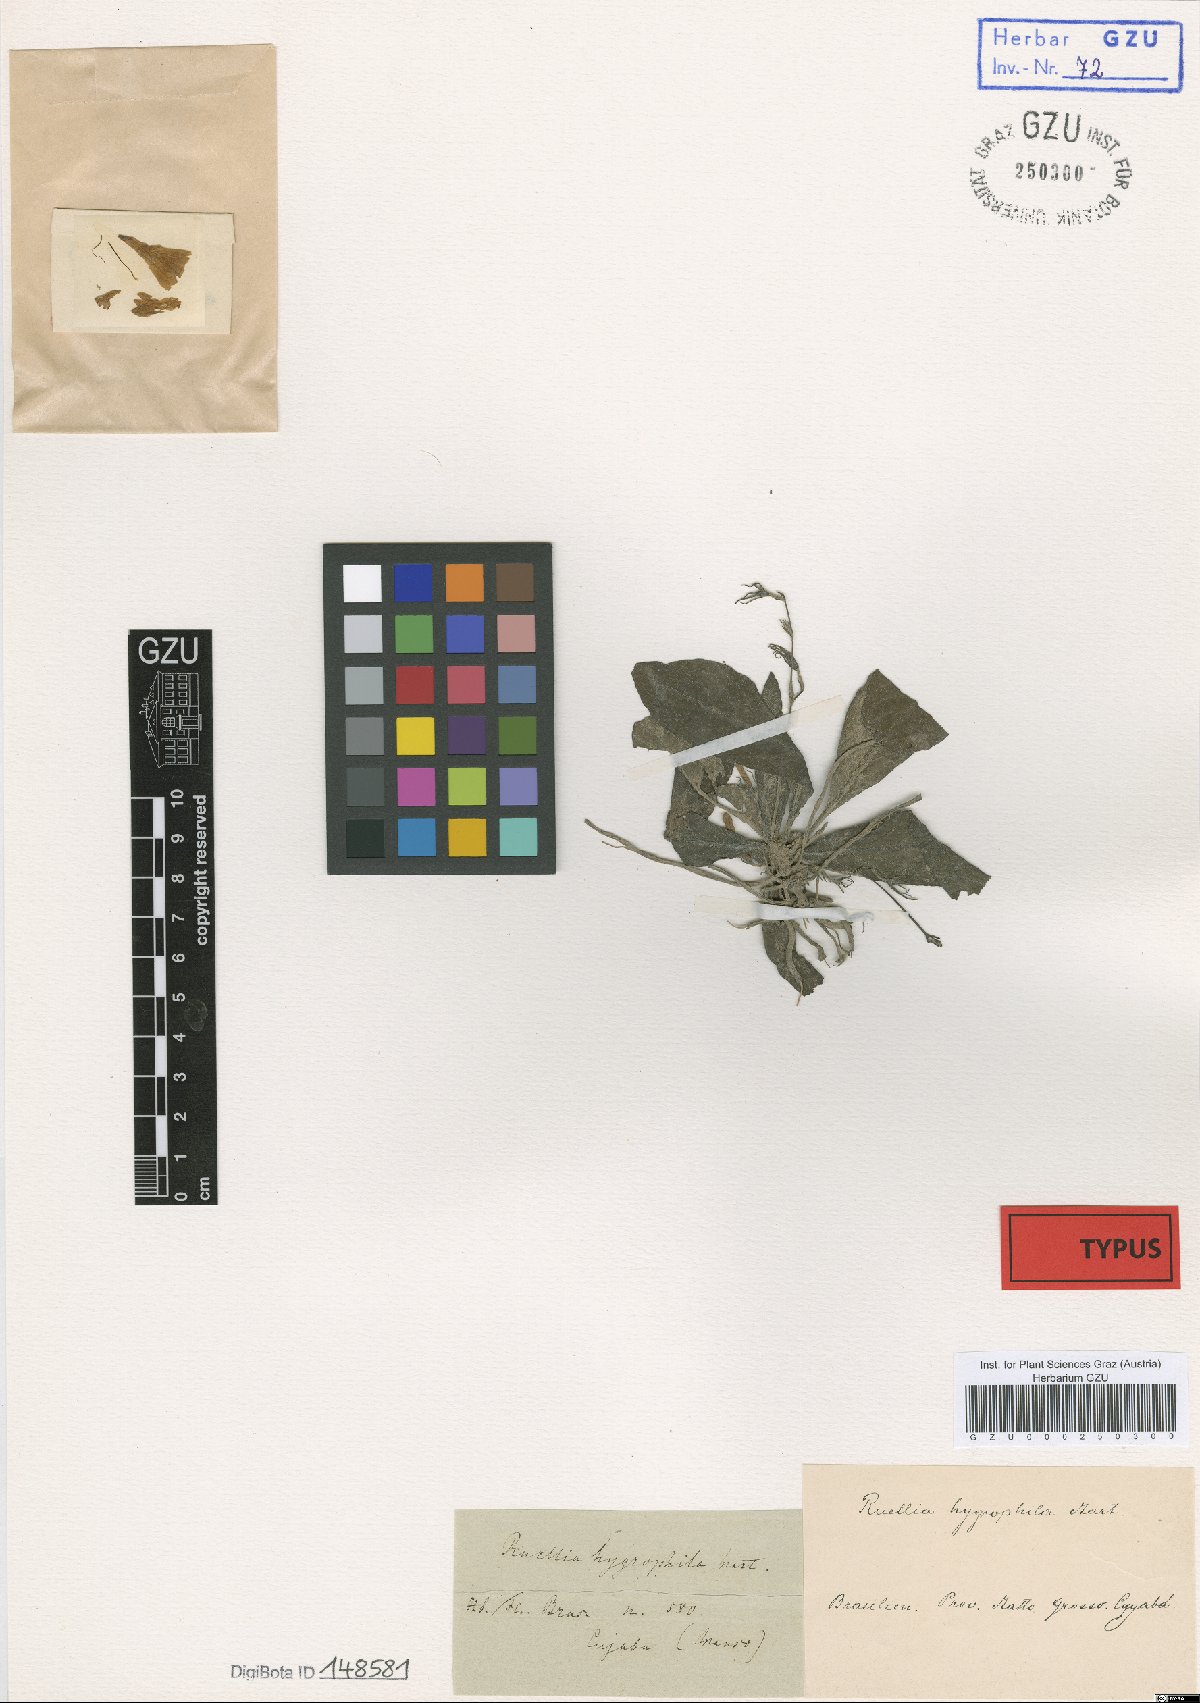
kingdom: Plantae
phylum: Tracheophyta
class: Magnoliopsida
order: Lamiales
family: Acanthaceae
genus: Ruellia
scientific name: Ruellia hygrophila
